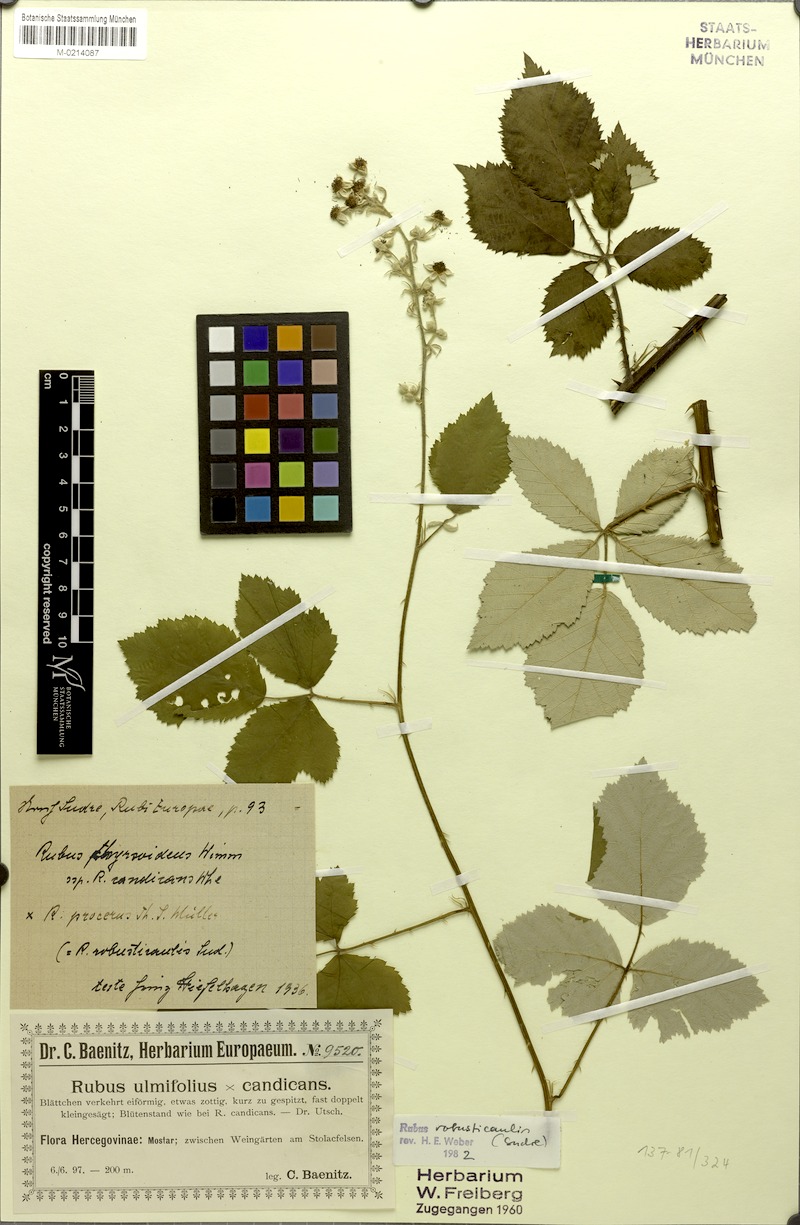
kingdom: Plantae
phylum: Tracheophyta
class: Magnoliopsida
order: Rosales
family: Rosaceae
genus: Rubus
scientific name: Rubus robusticaulis
